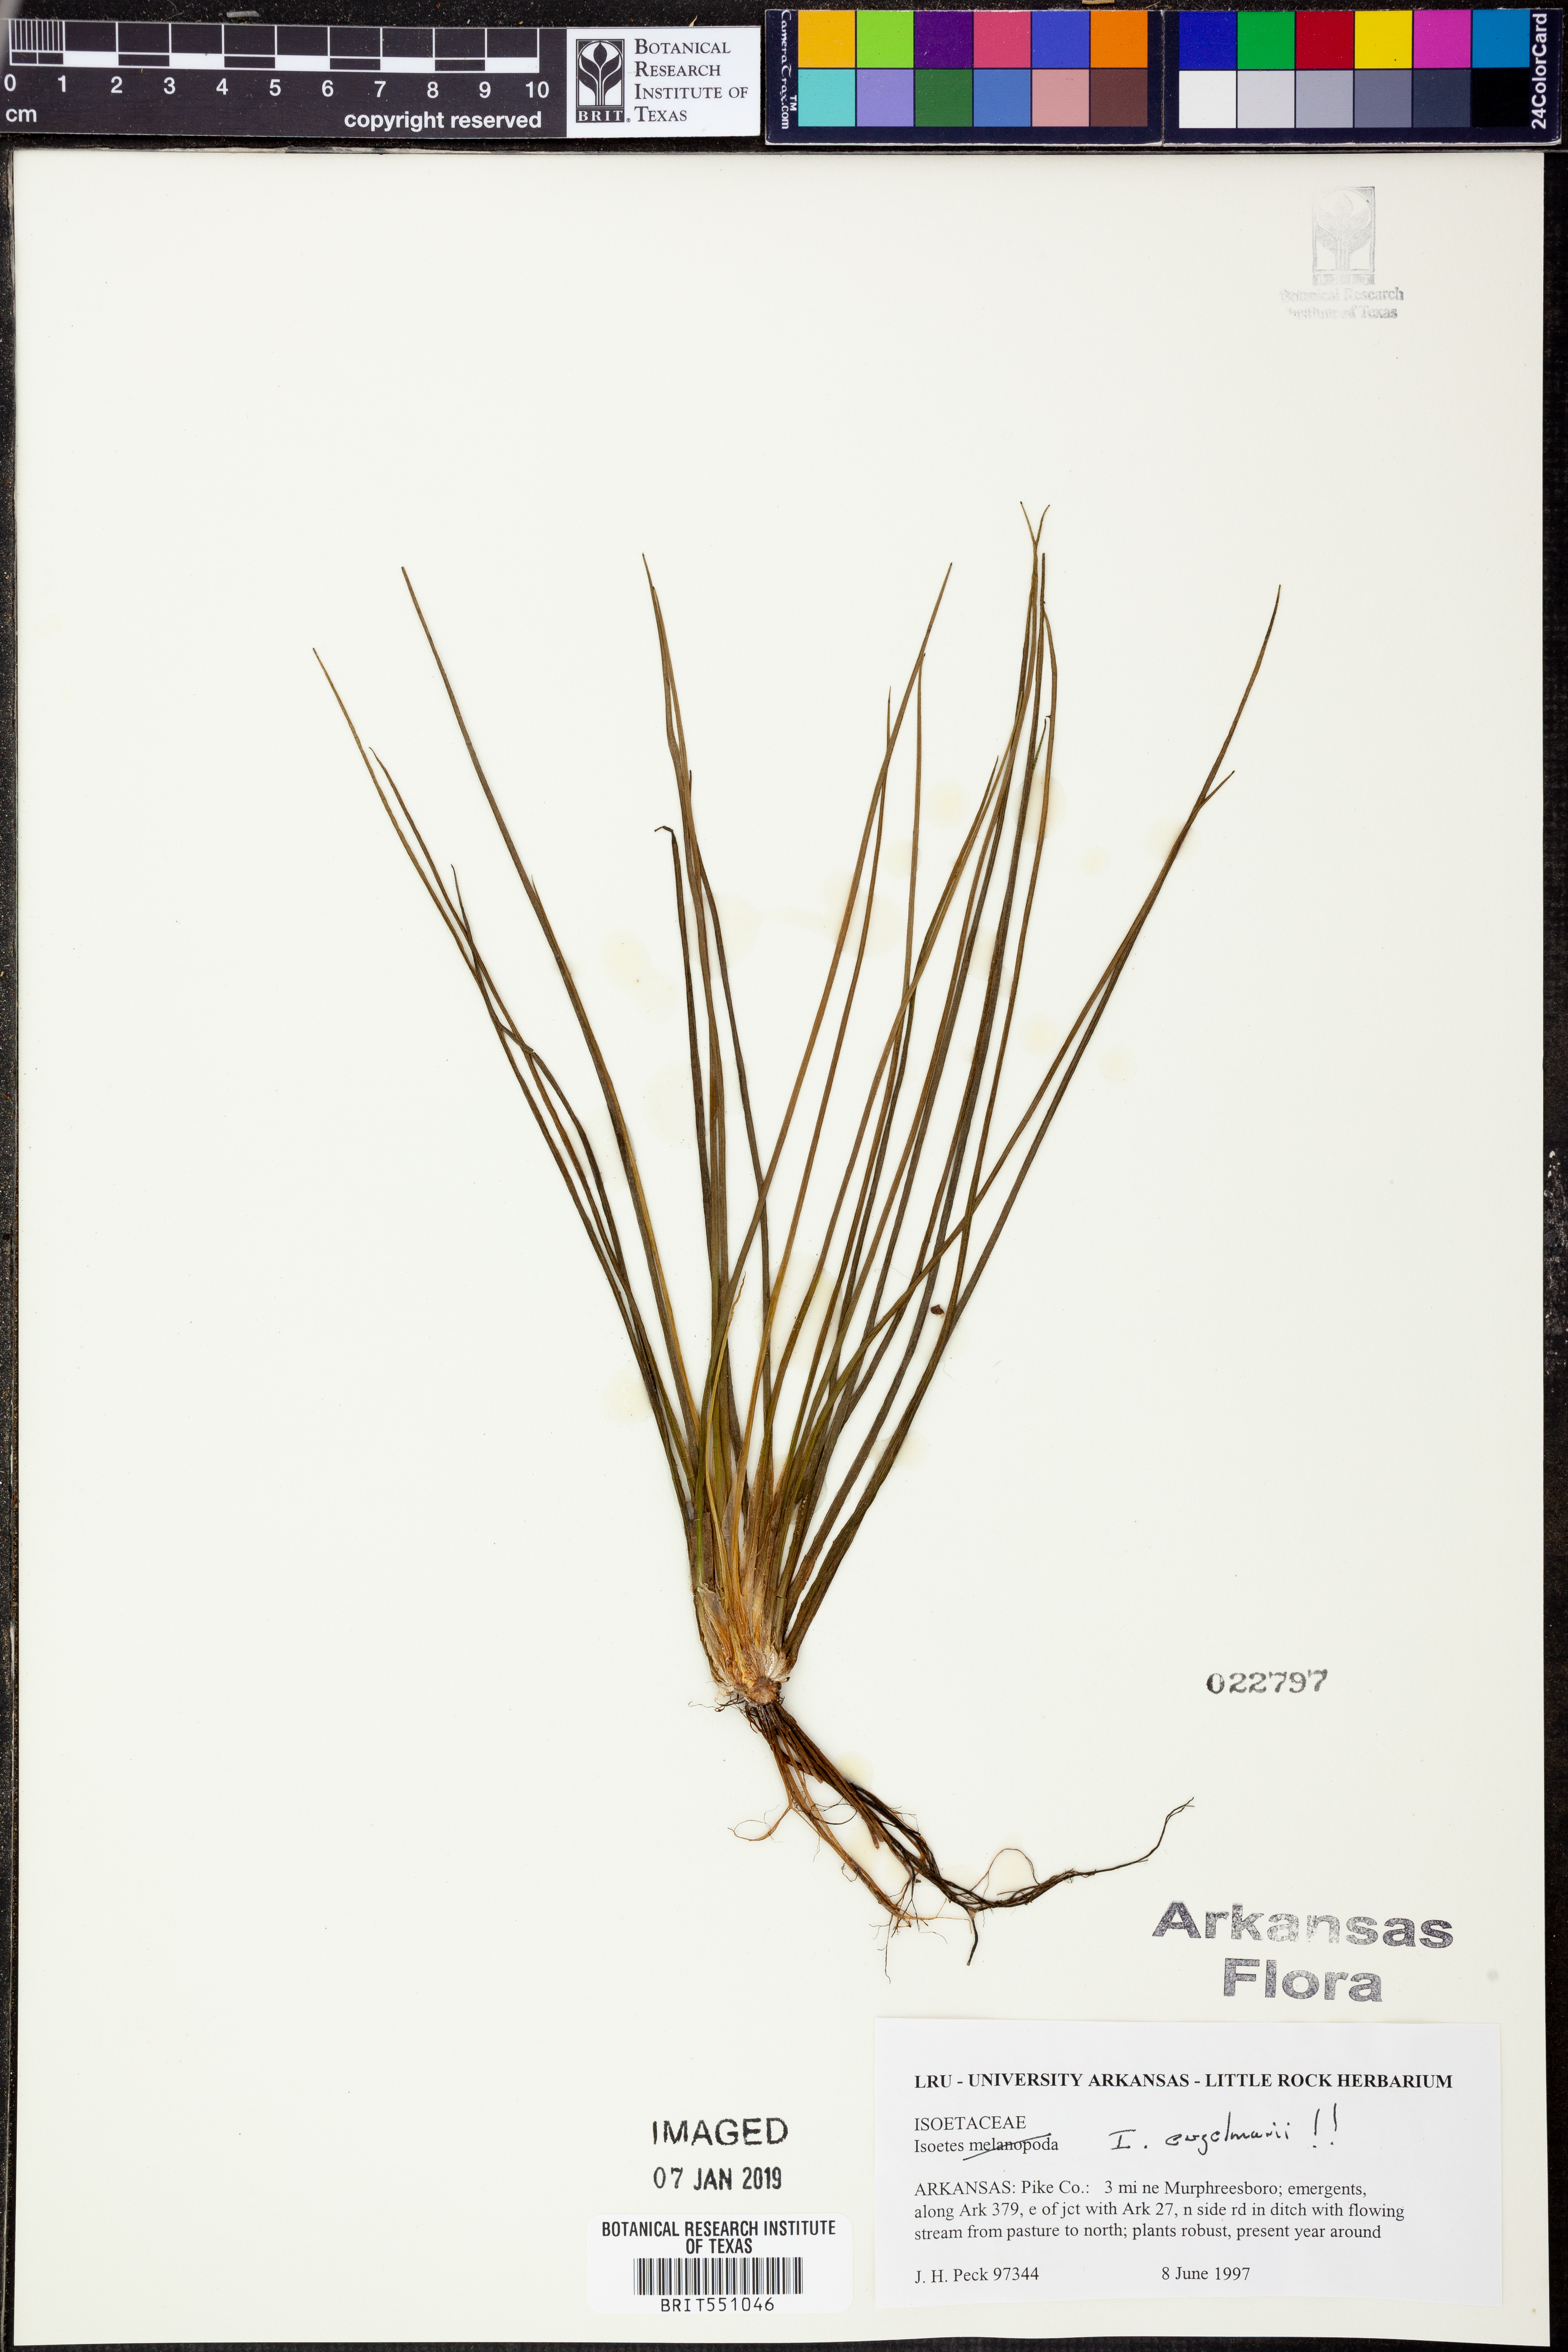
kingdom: Plantae
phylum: Tracheophyta
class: Lycopodiopsida
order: Isoetales
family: Isoetaceae
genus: Isoetes
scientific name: Isoetes engelmannii
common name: Engelmann's quillwort
